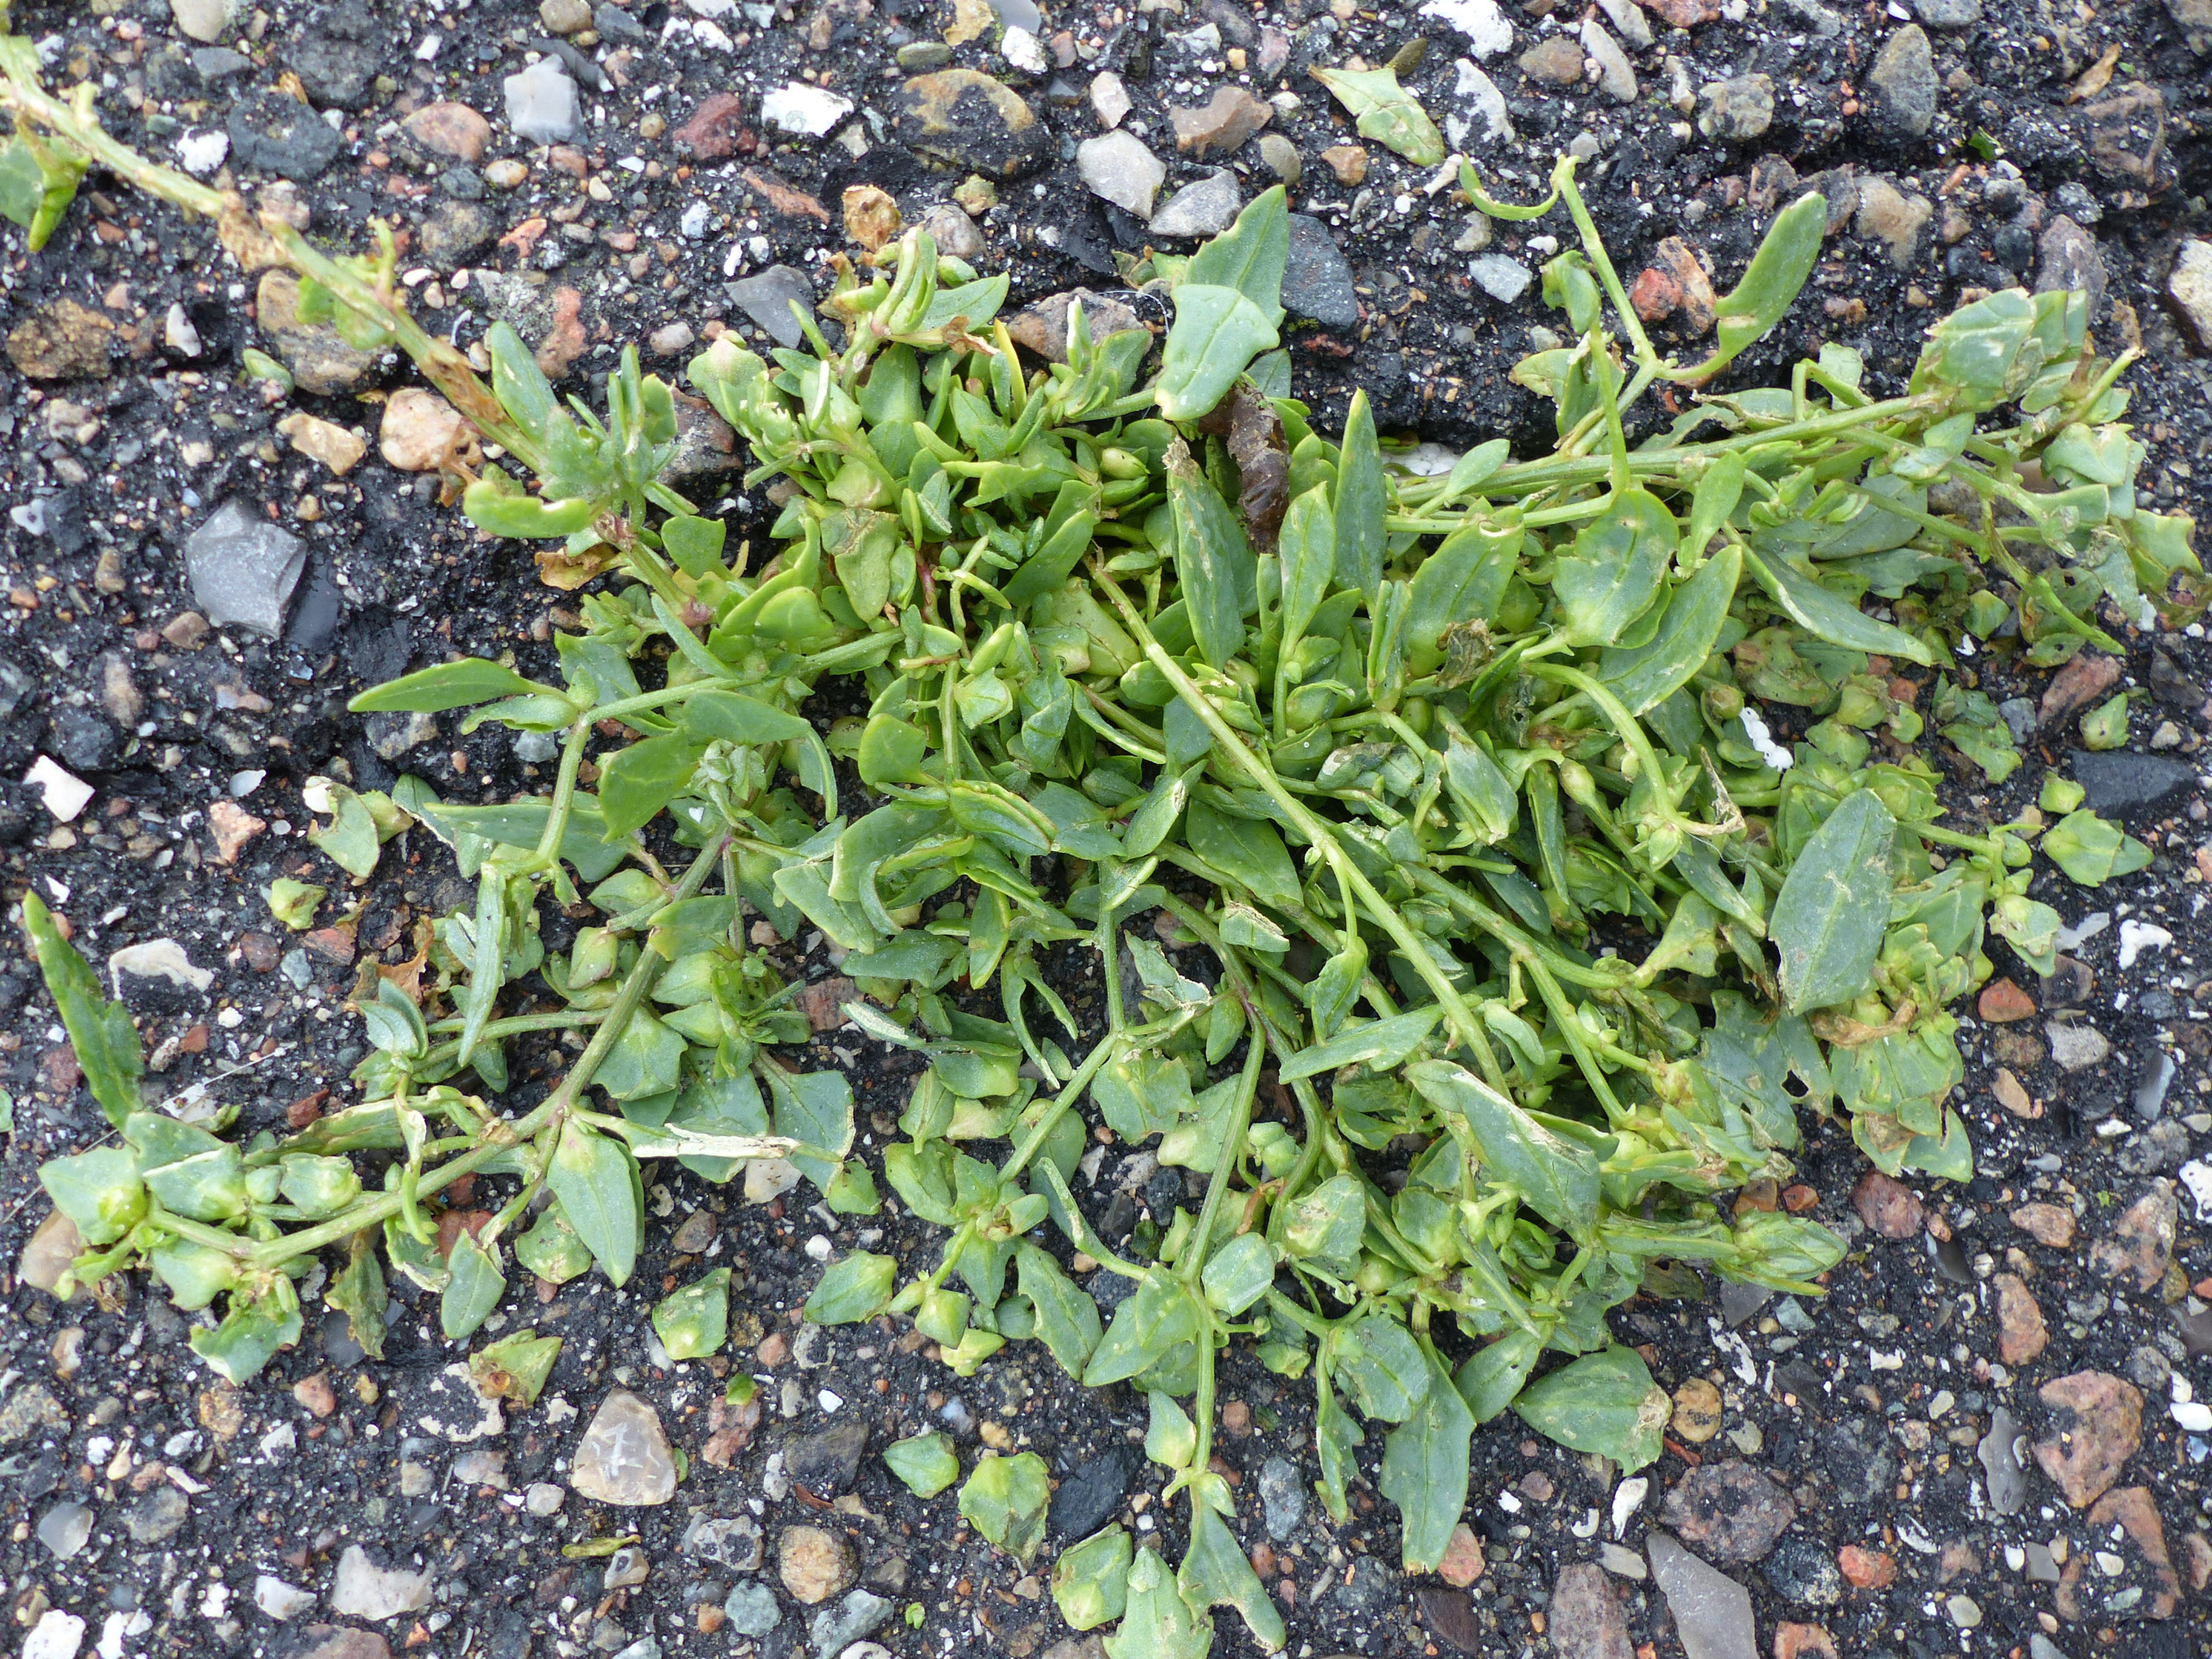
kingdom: Plantae
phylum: Tracheophyta
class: Magnoliopsida
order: Caryophyllales
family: Amaranthaceae
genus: Atriplex
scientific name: Atriplex glabriuscula
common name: Tykbladet mælde
